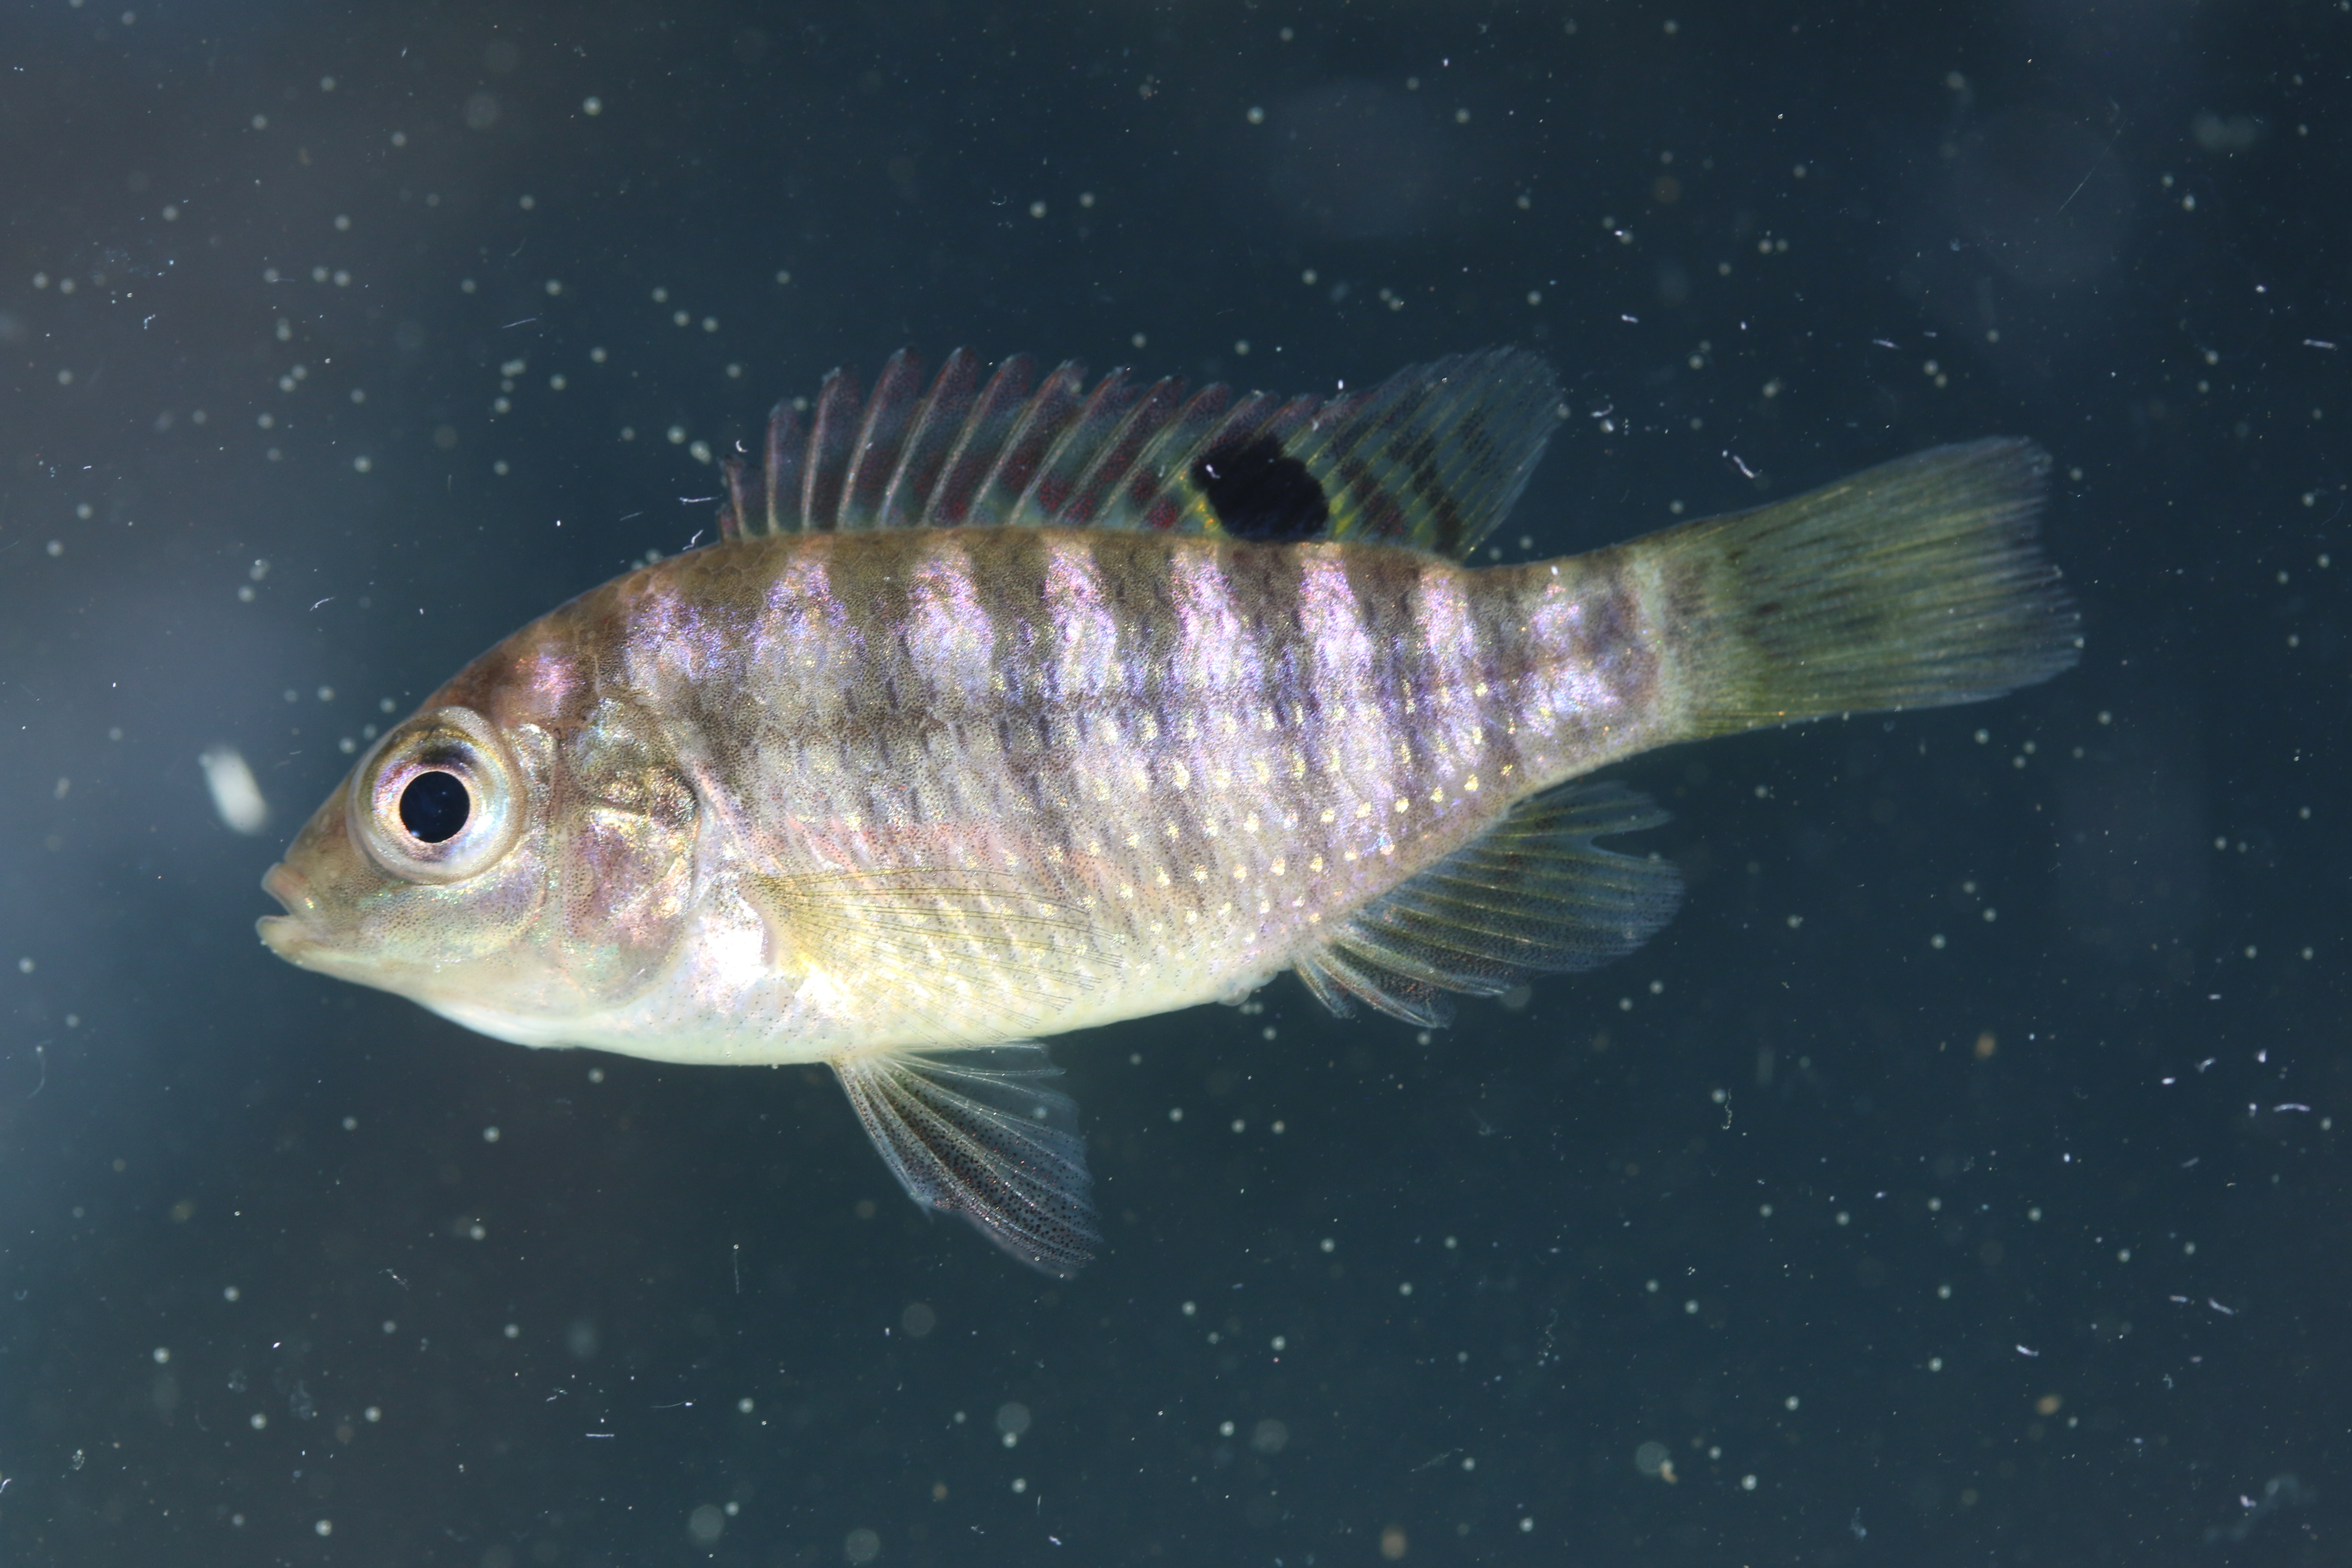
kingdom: Animalia
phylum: Chordata
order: Perciformes
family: Cichlidae
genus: Tilapia
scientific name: Tilapia sparrmanii
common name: Banded tilapia
